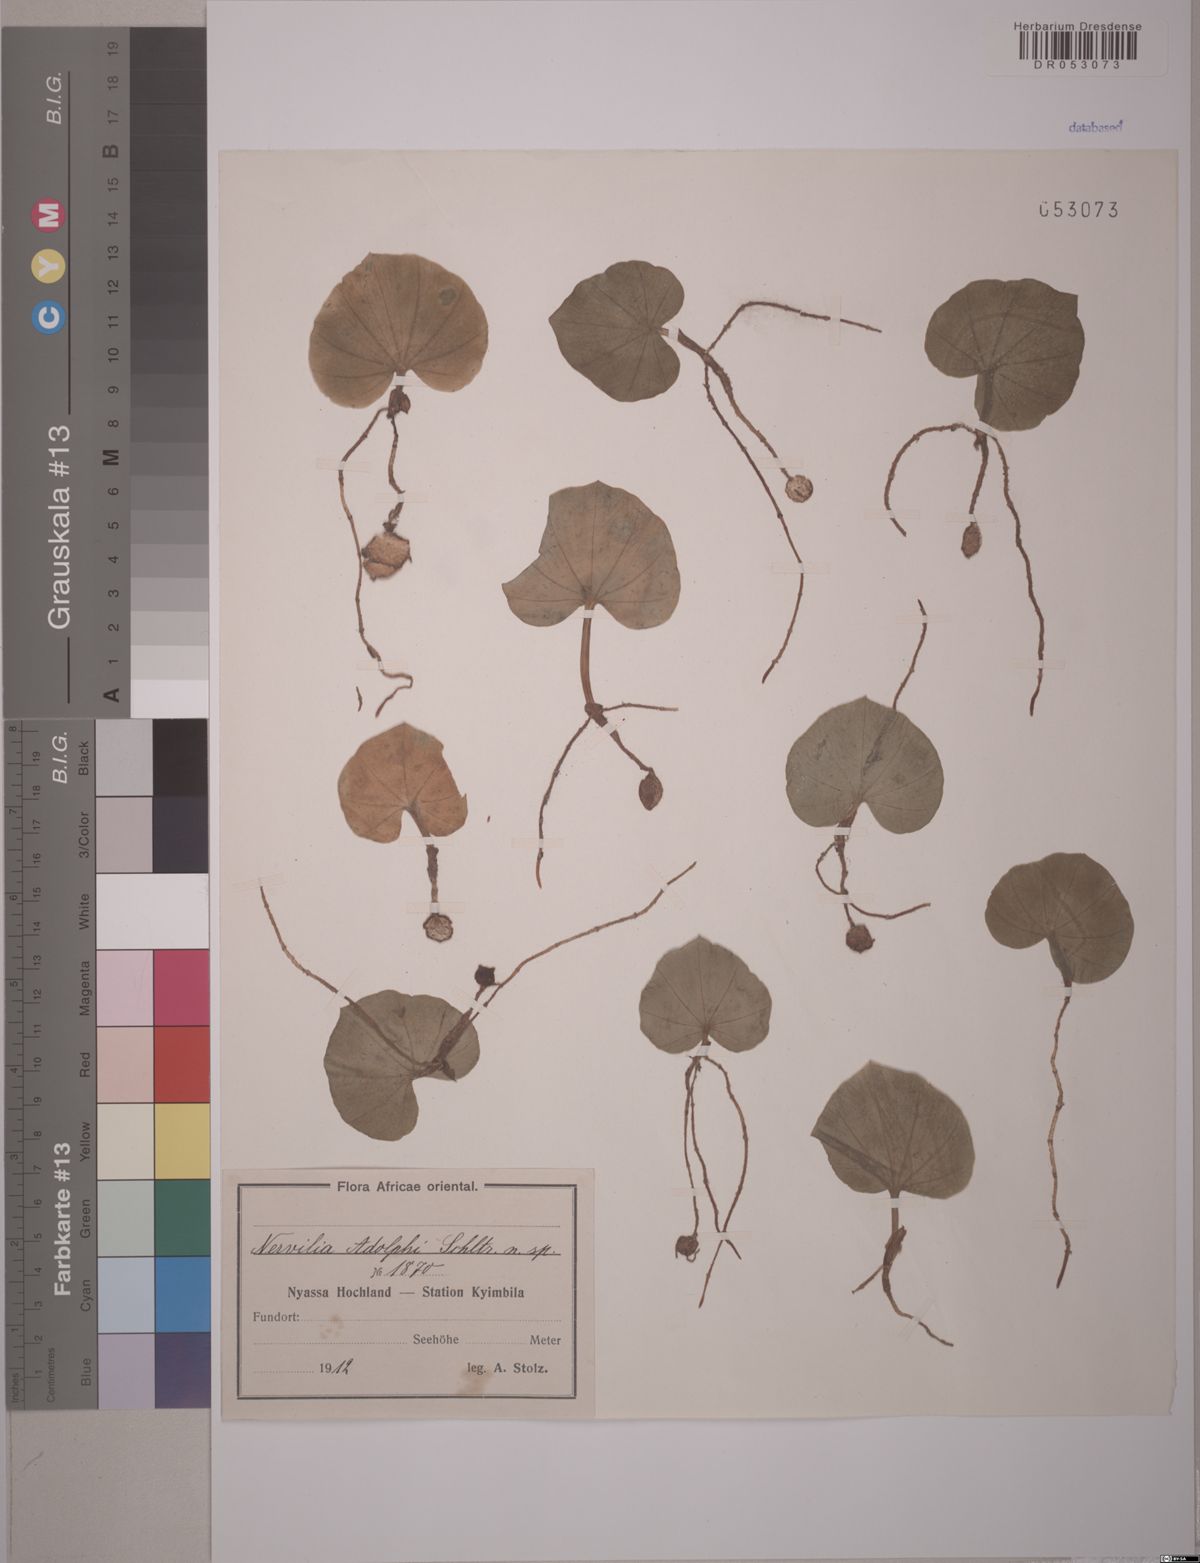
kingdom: Plantae
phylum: Tracheophyta
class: Liliopsida
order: Asparagales
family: Orchidaceae
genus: Nervilia
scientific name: Nervilia adolphi
